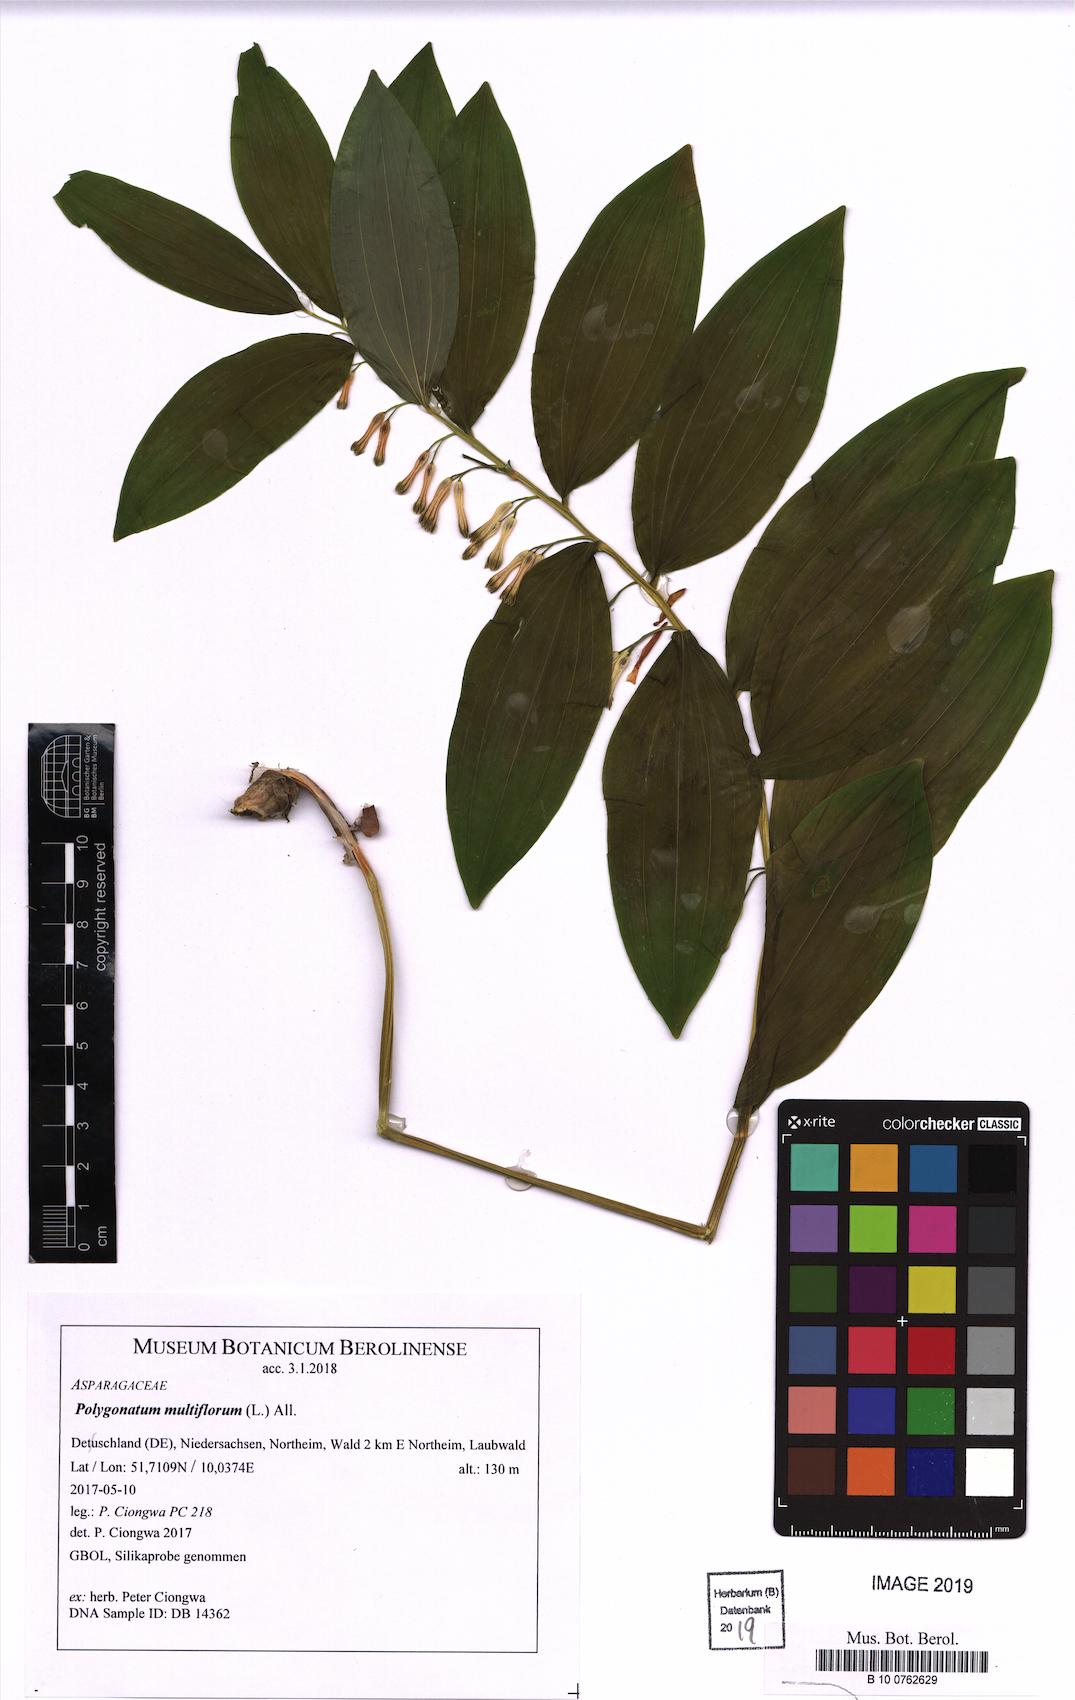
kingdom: Plantae
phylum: Tracheophyta
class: Liliopsida
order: Asparagales
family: Asparagaceae
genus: Polygonatum
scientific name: Polygonatum multiflorum
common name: Solomon's-seal
